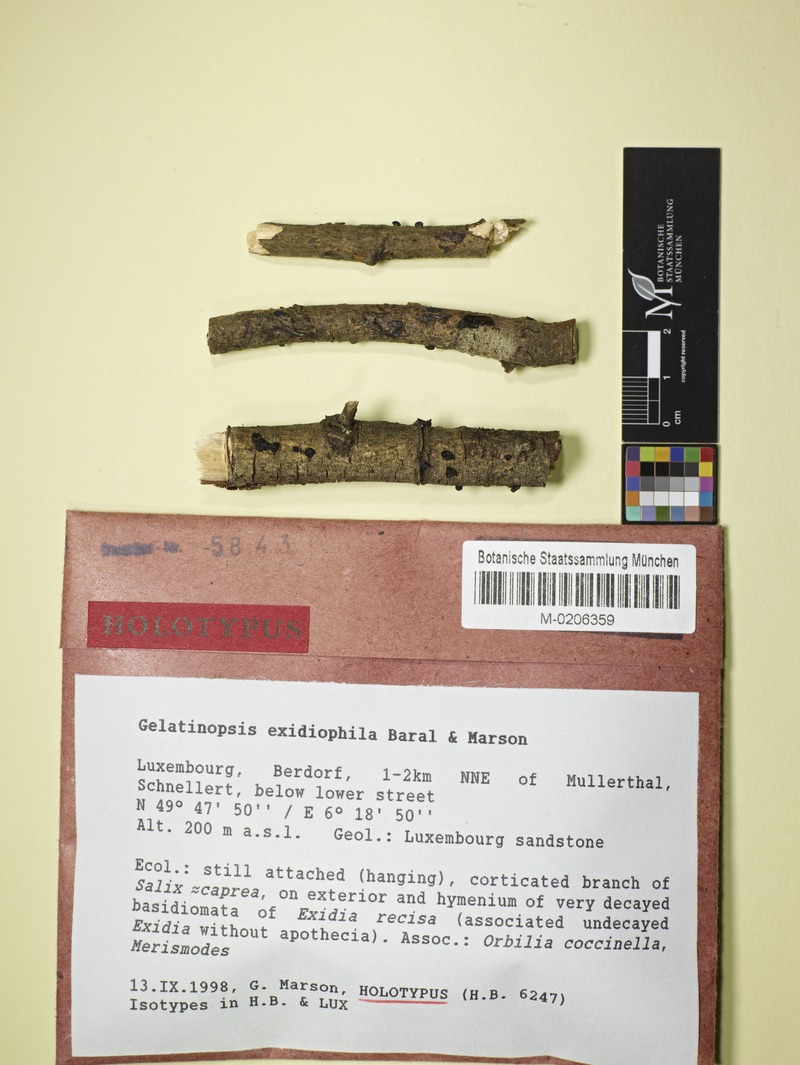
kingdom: Fungi
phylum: Ascomycota
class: Orbiliomycetes
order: Orbiliales
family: Orbiliaceae
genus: Orbilia
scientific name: Orbilia coccinella
